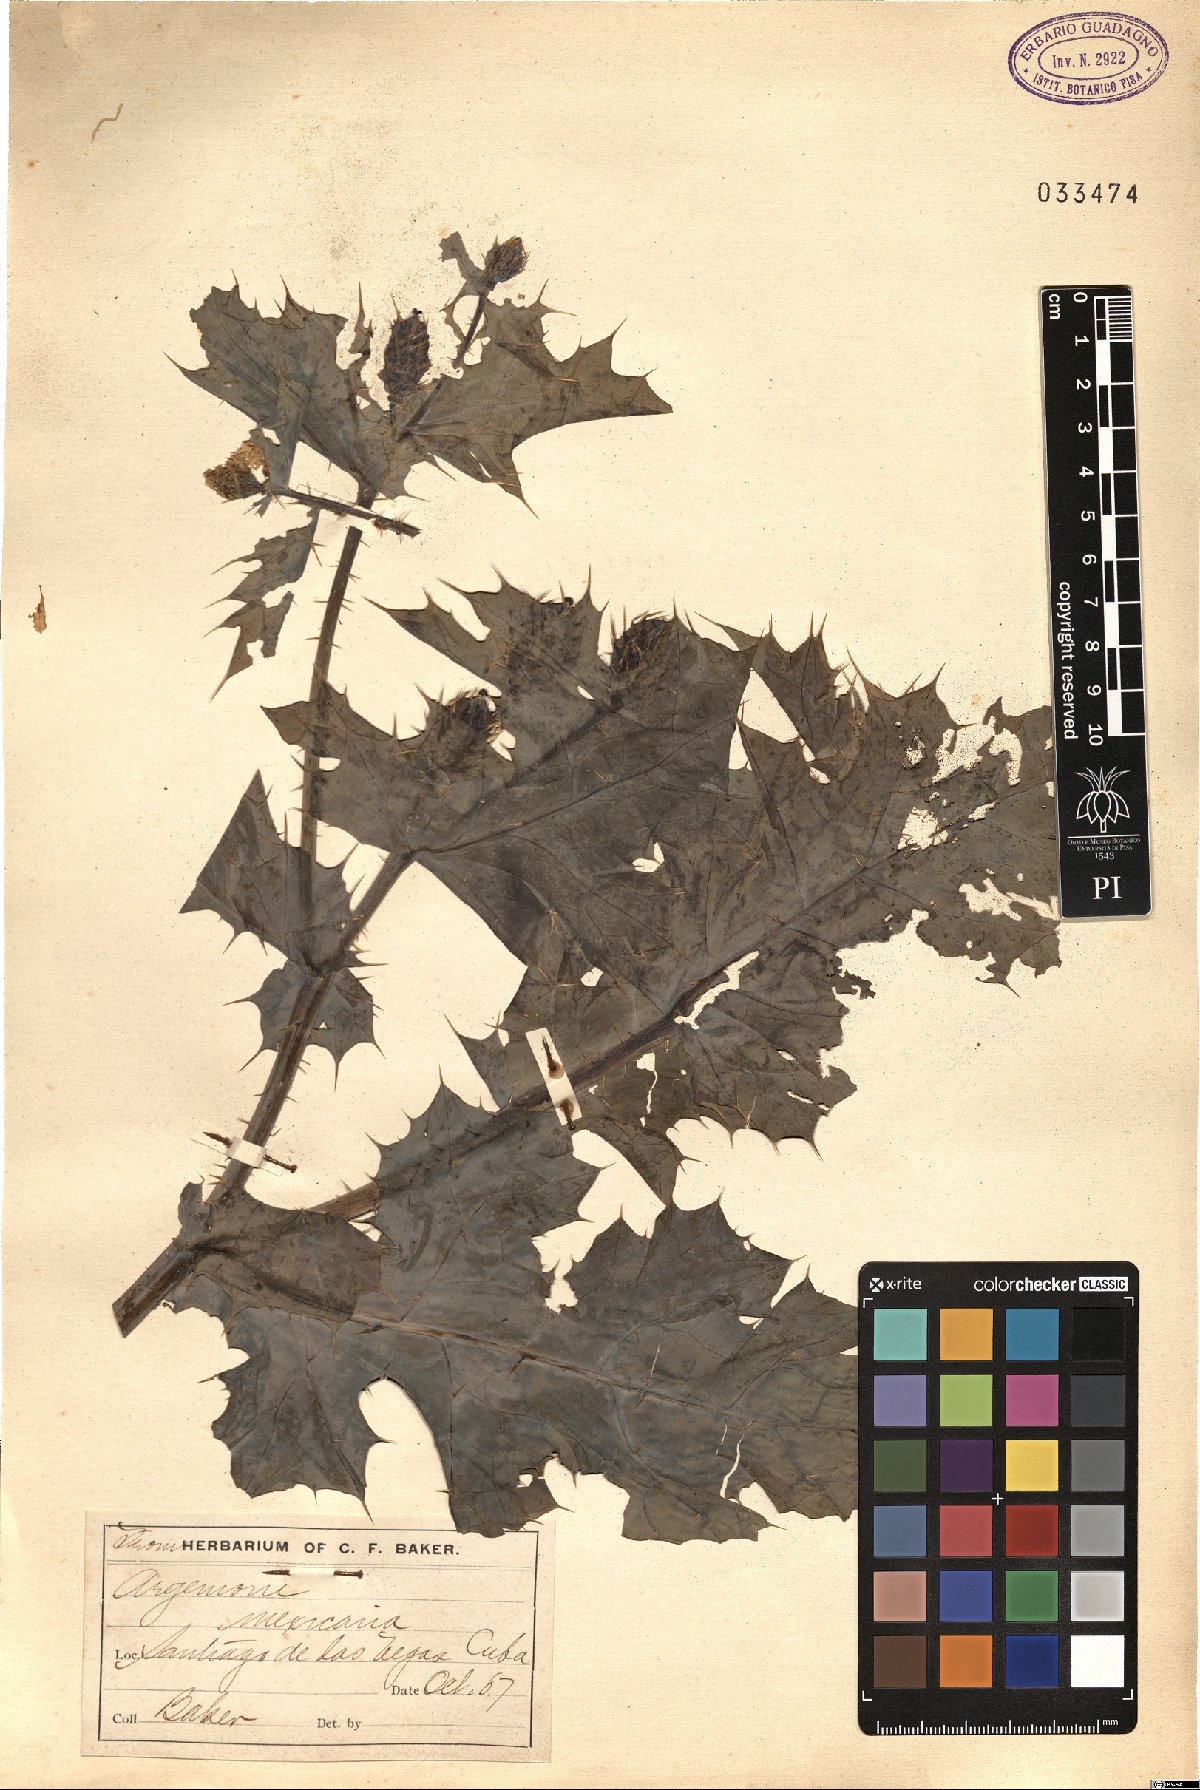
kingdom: Plantae
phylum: Tracheophyta
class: Magnoliopsida
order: Ranunculales
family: Papaveraceae
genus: Argemone
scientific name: Argemone mexicana
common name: Mexican poppy
